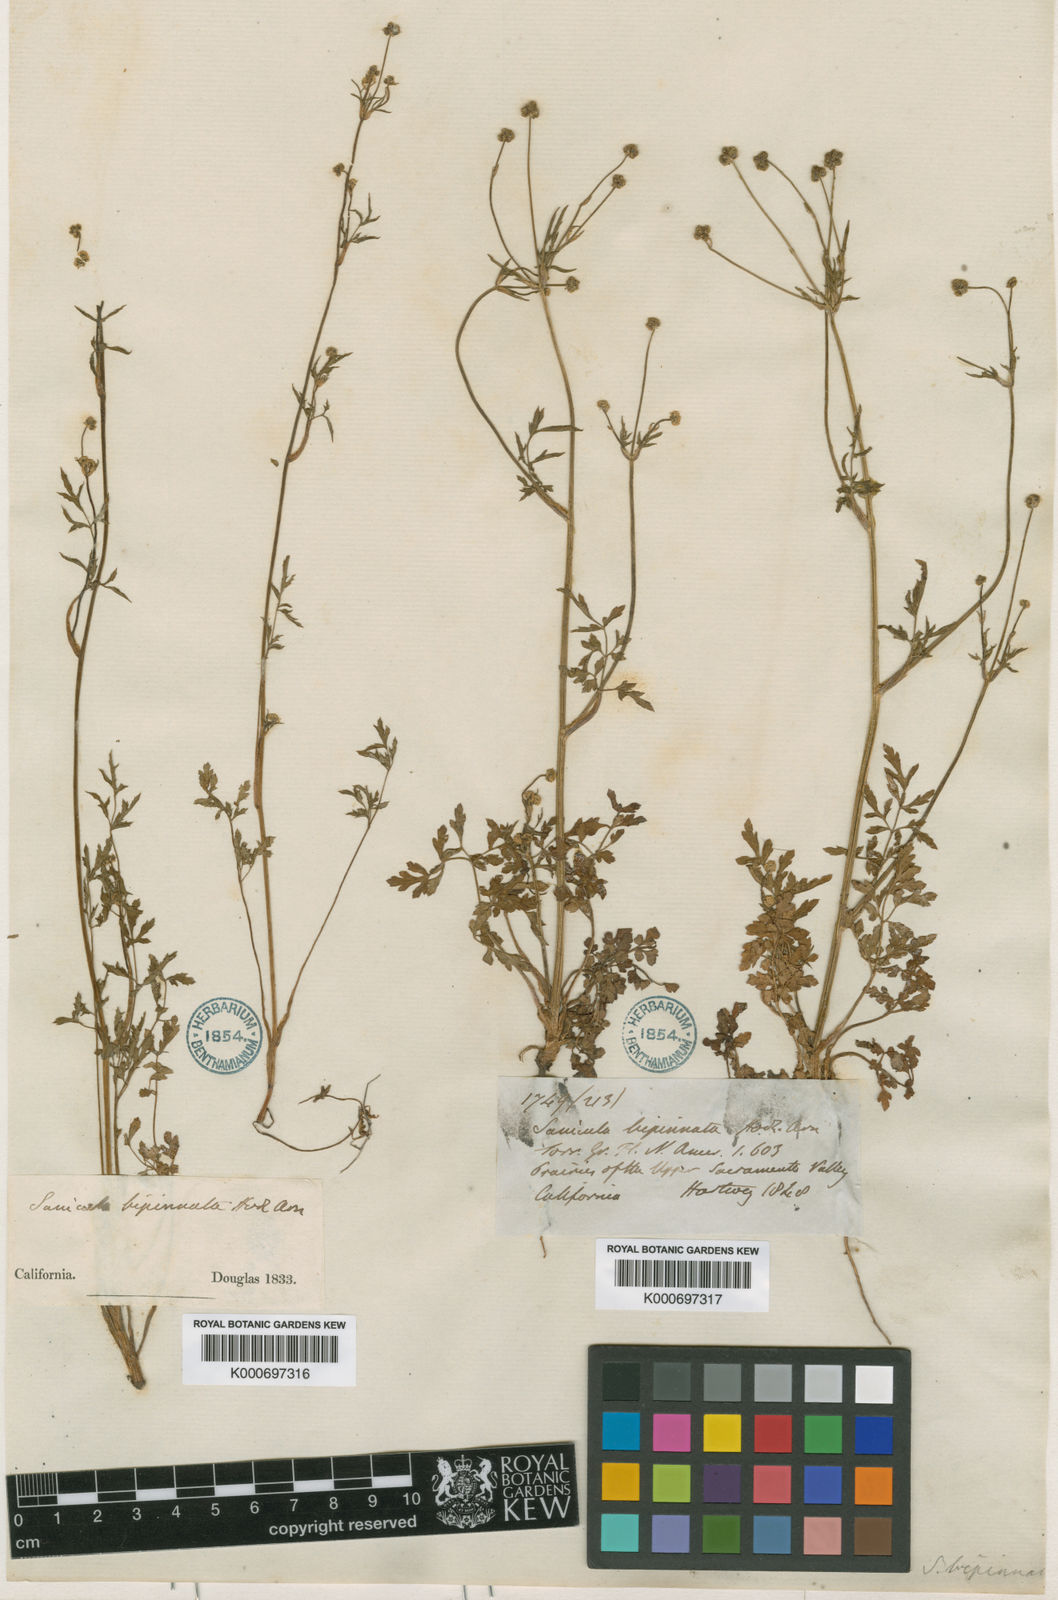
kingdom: Plantae
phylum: Tracheophyta
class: Magnoliopsida
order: Apiales
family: Apiaceae
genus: Sanicula
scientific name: Sanicula bipinnata
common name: Poison sanicle
